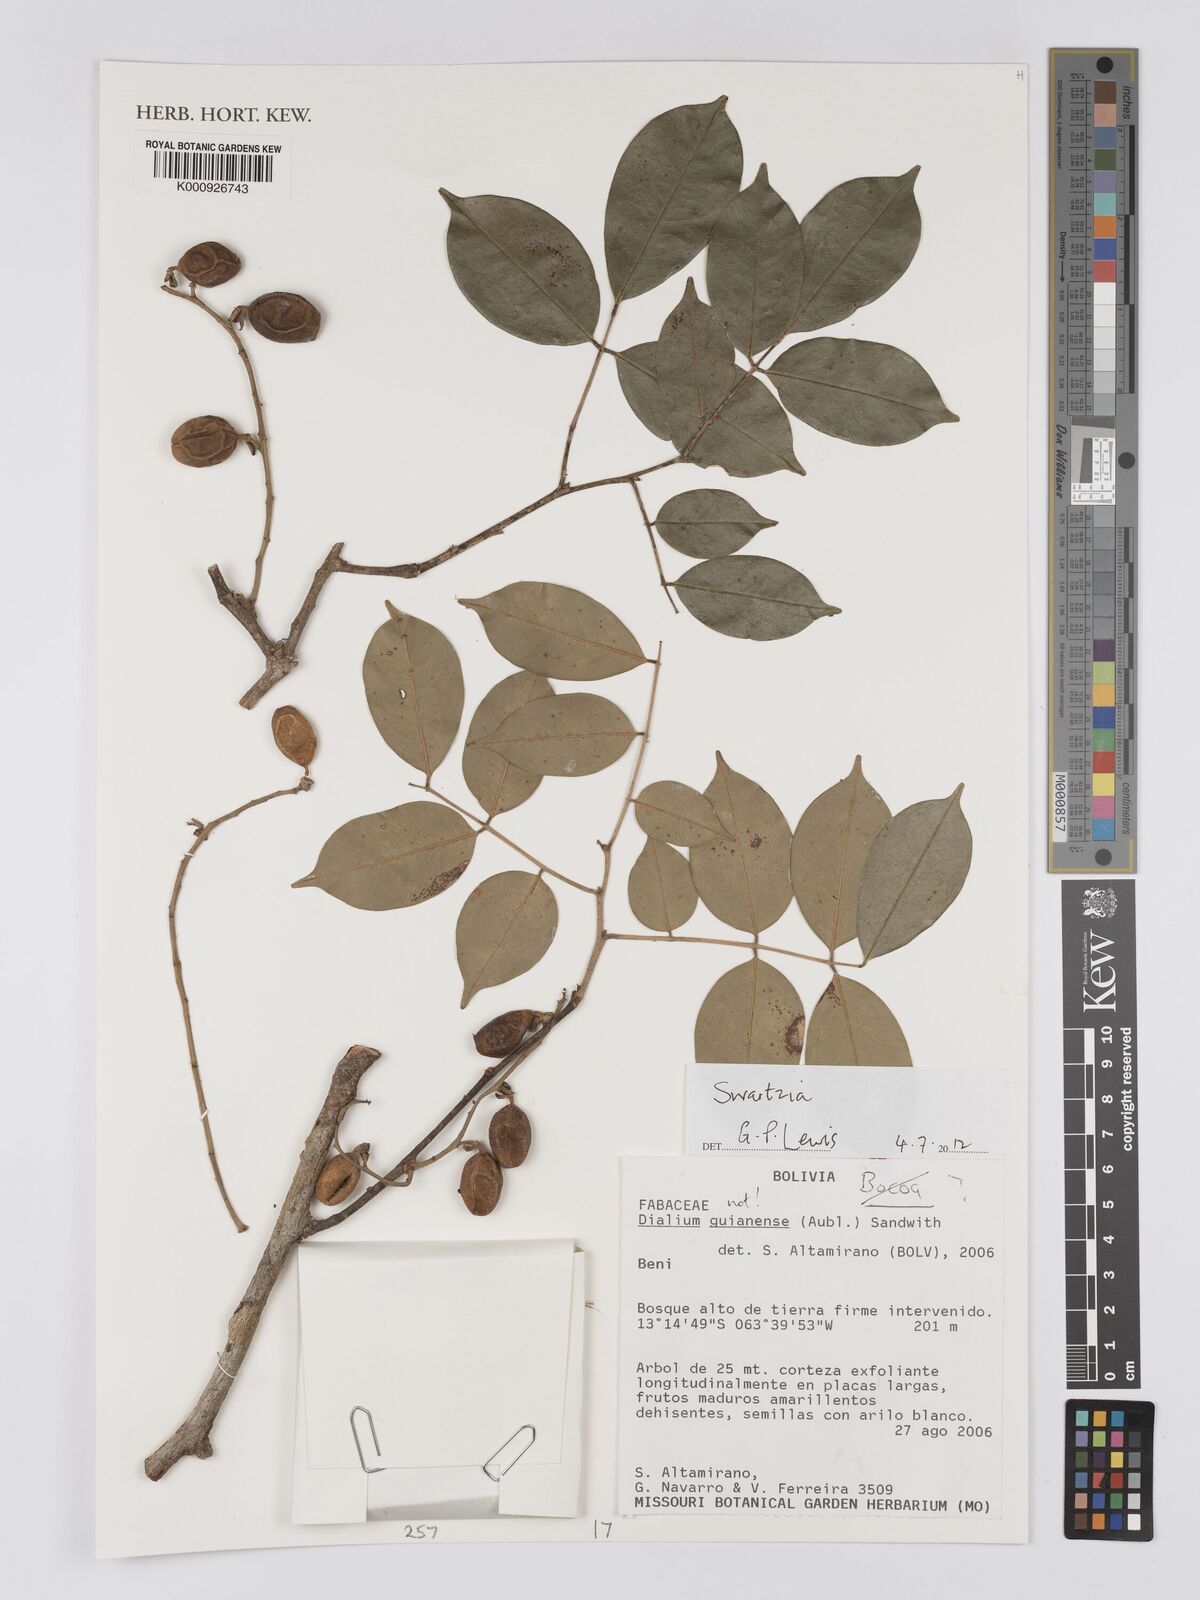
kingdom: Plantae
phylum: Tracheophyta
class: Magnoliopsida
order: Fabales
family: Fabaceae
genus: Swartzia
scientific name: Swartzia
